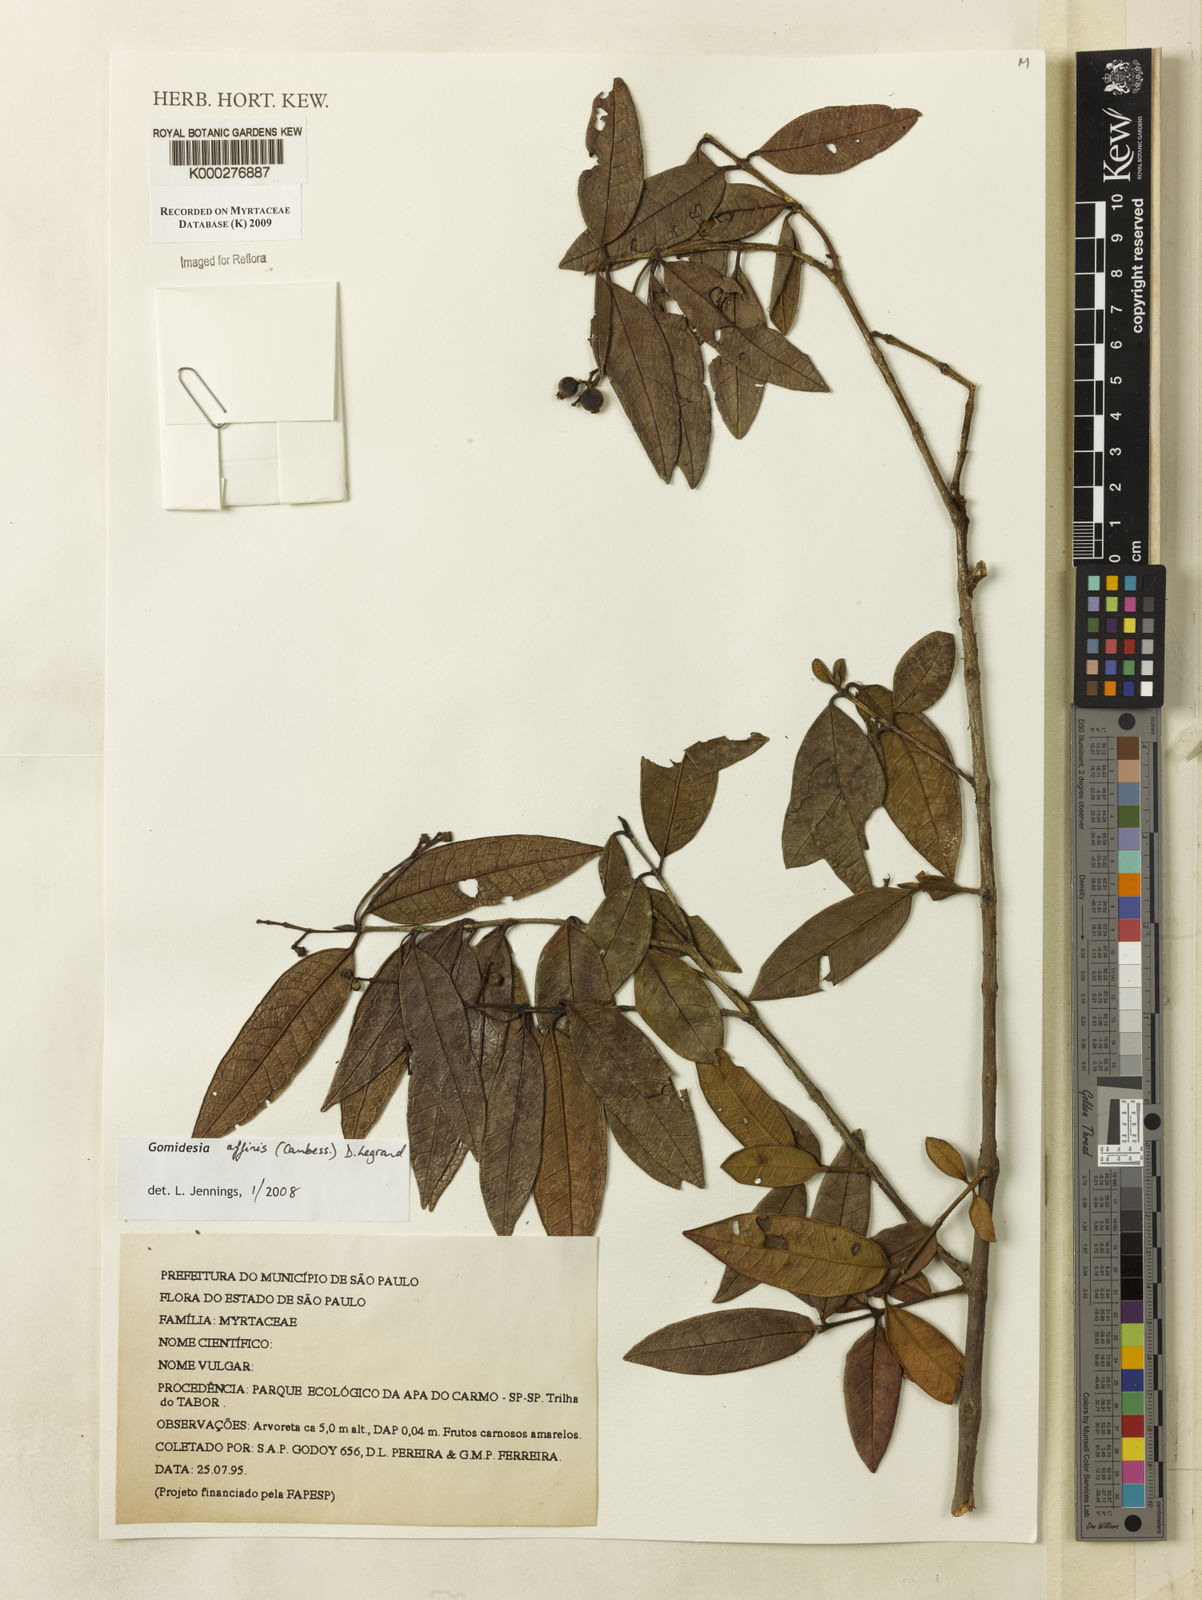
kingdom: Plantae
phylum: Tracheophyta
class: Magnoliopsida
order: Myrtales
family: Myrtaceae
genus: Myrcia
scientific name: Myrcia hebepetala
